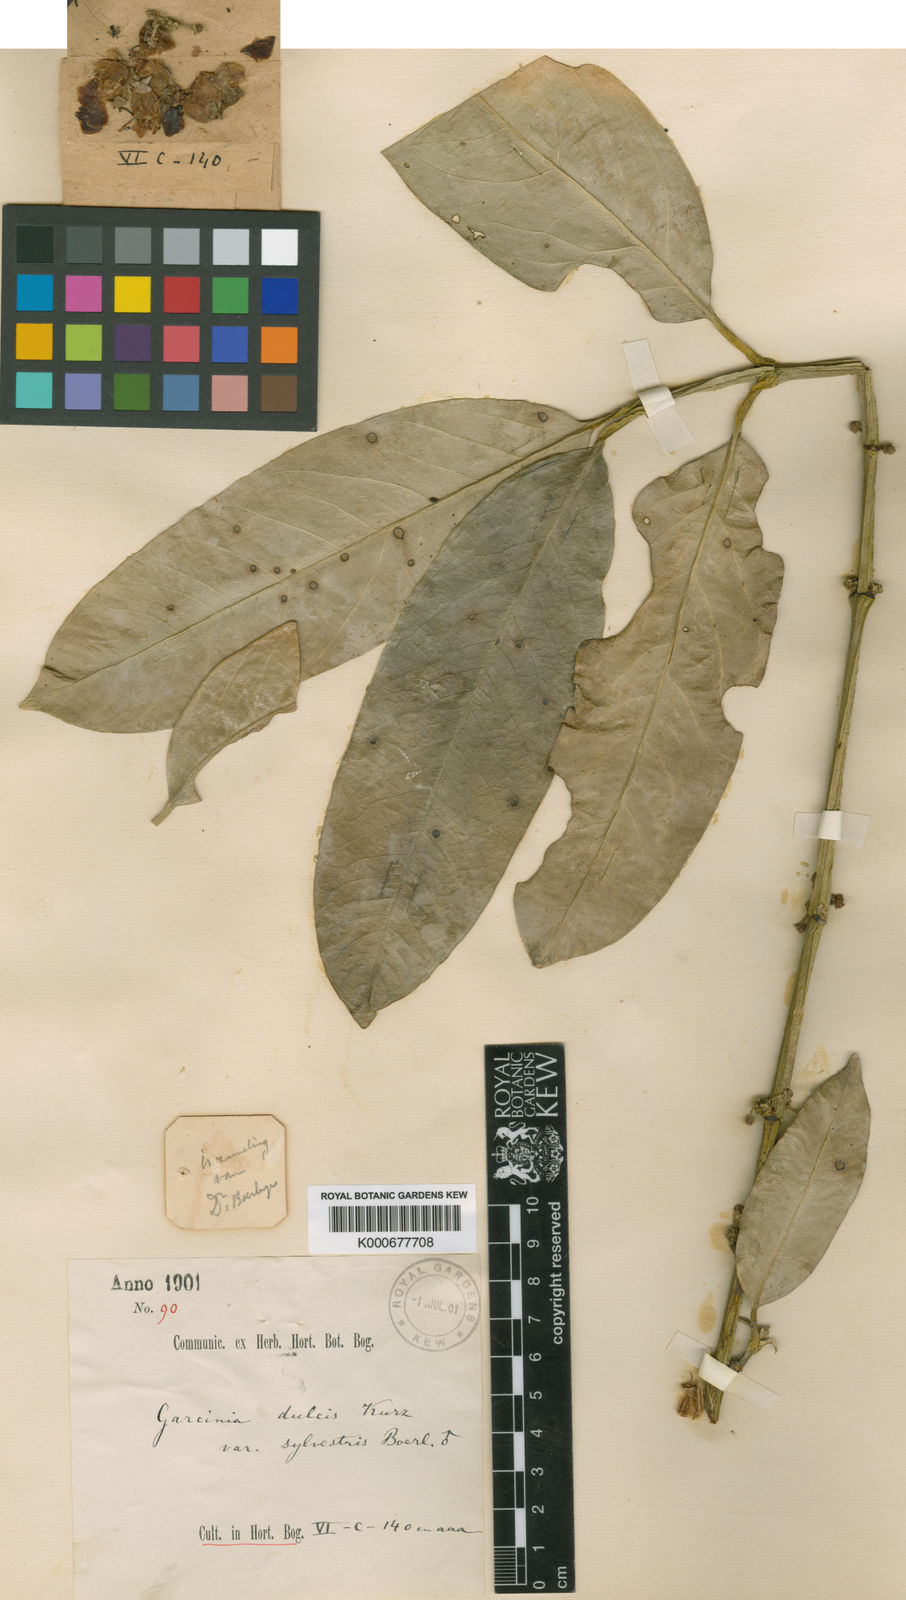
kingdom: Plantae
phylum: Tracheophyta
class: Magnoliopsida
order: Malpighiales
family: Clusiaceae
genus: Garcinia
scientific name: Garcinia dulcis
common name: Eggtree
